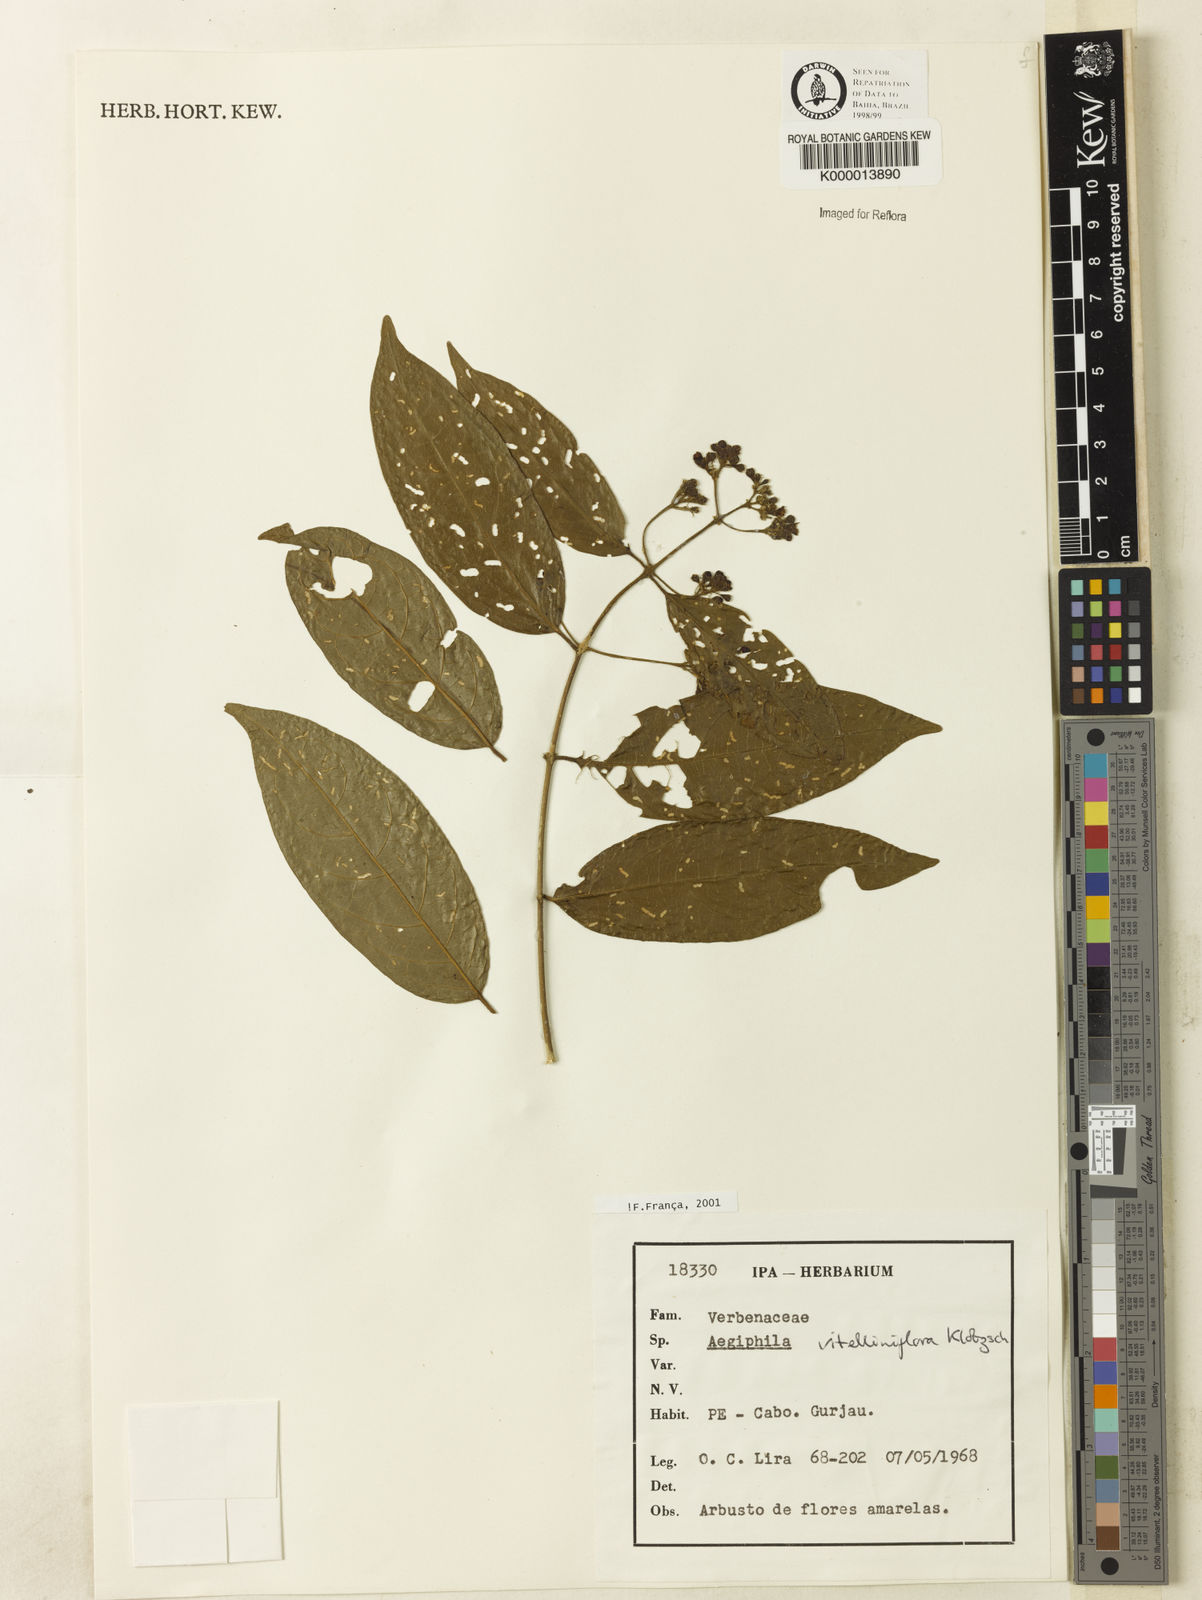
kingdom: Plantae
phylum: Tracheophyta
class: Magnoliopsida
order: Lamiales
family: Lamiaceae
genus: Aegiphila
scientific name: Aegiphila vitelliniflora
